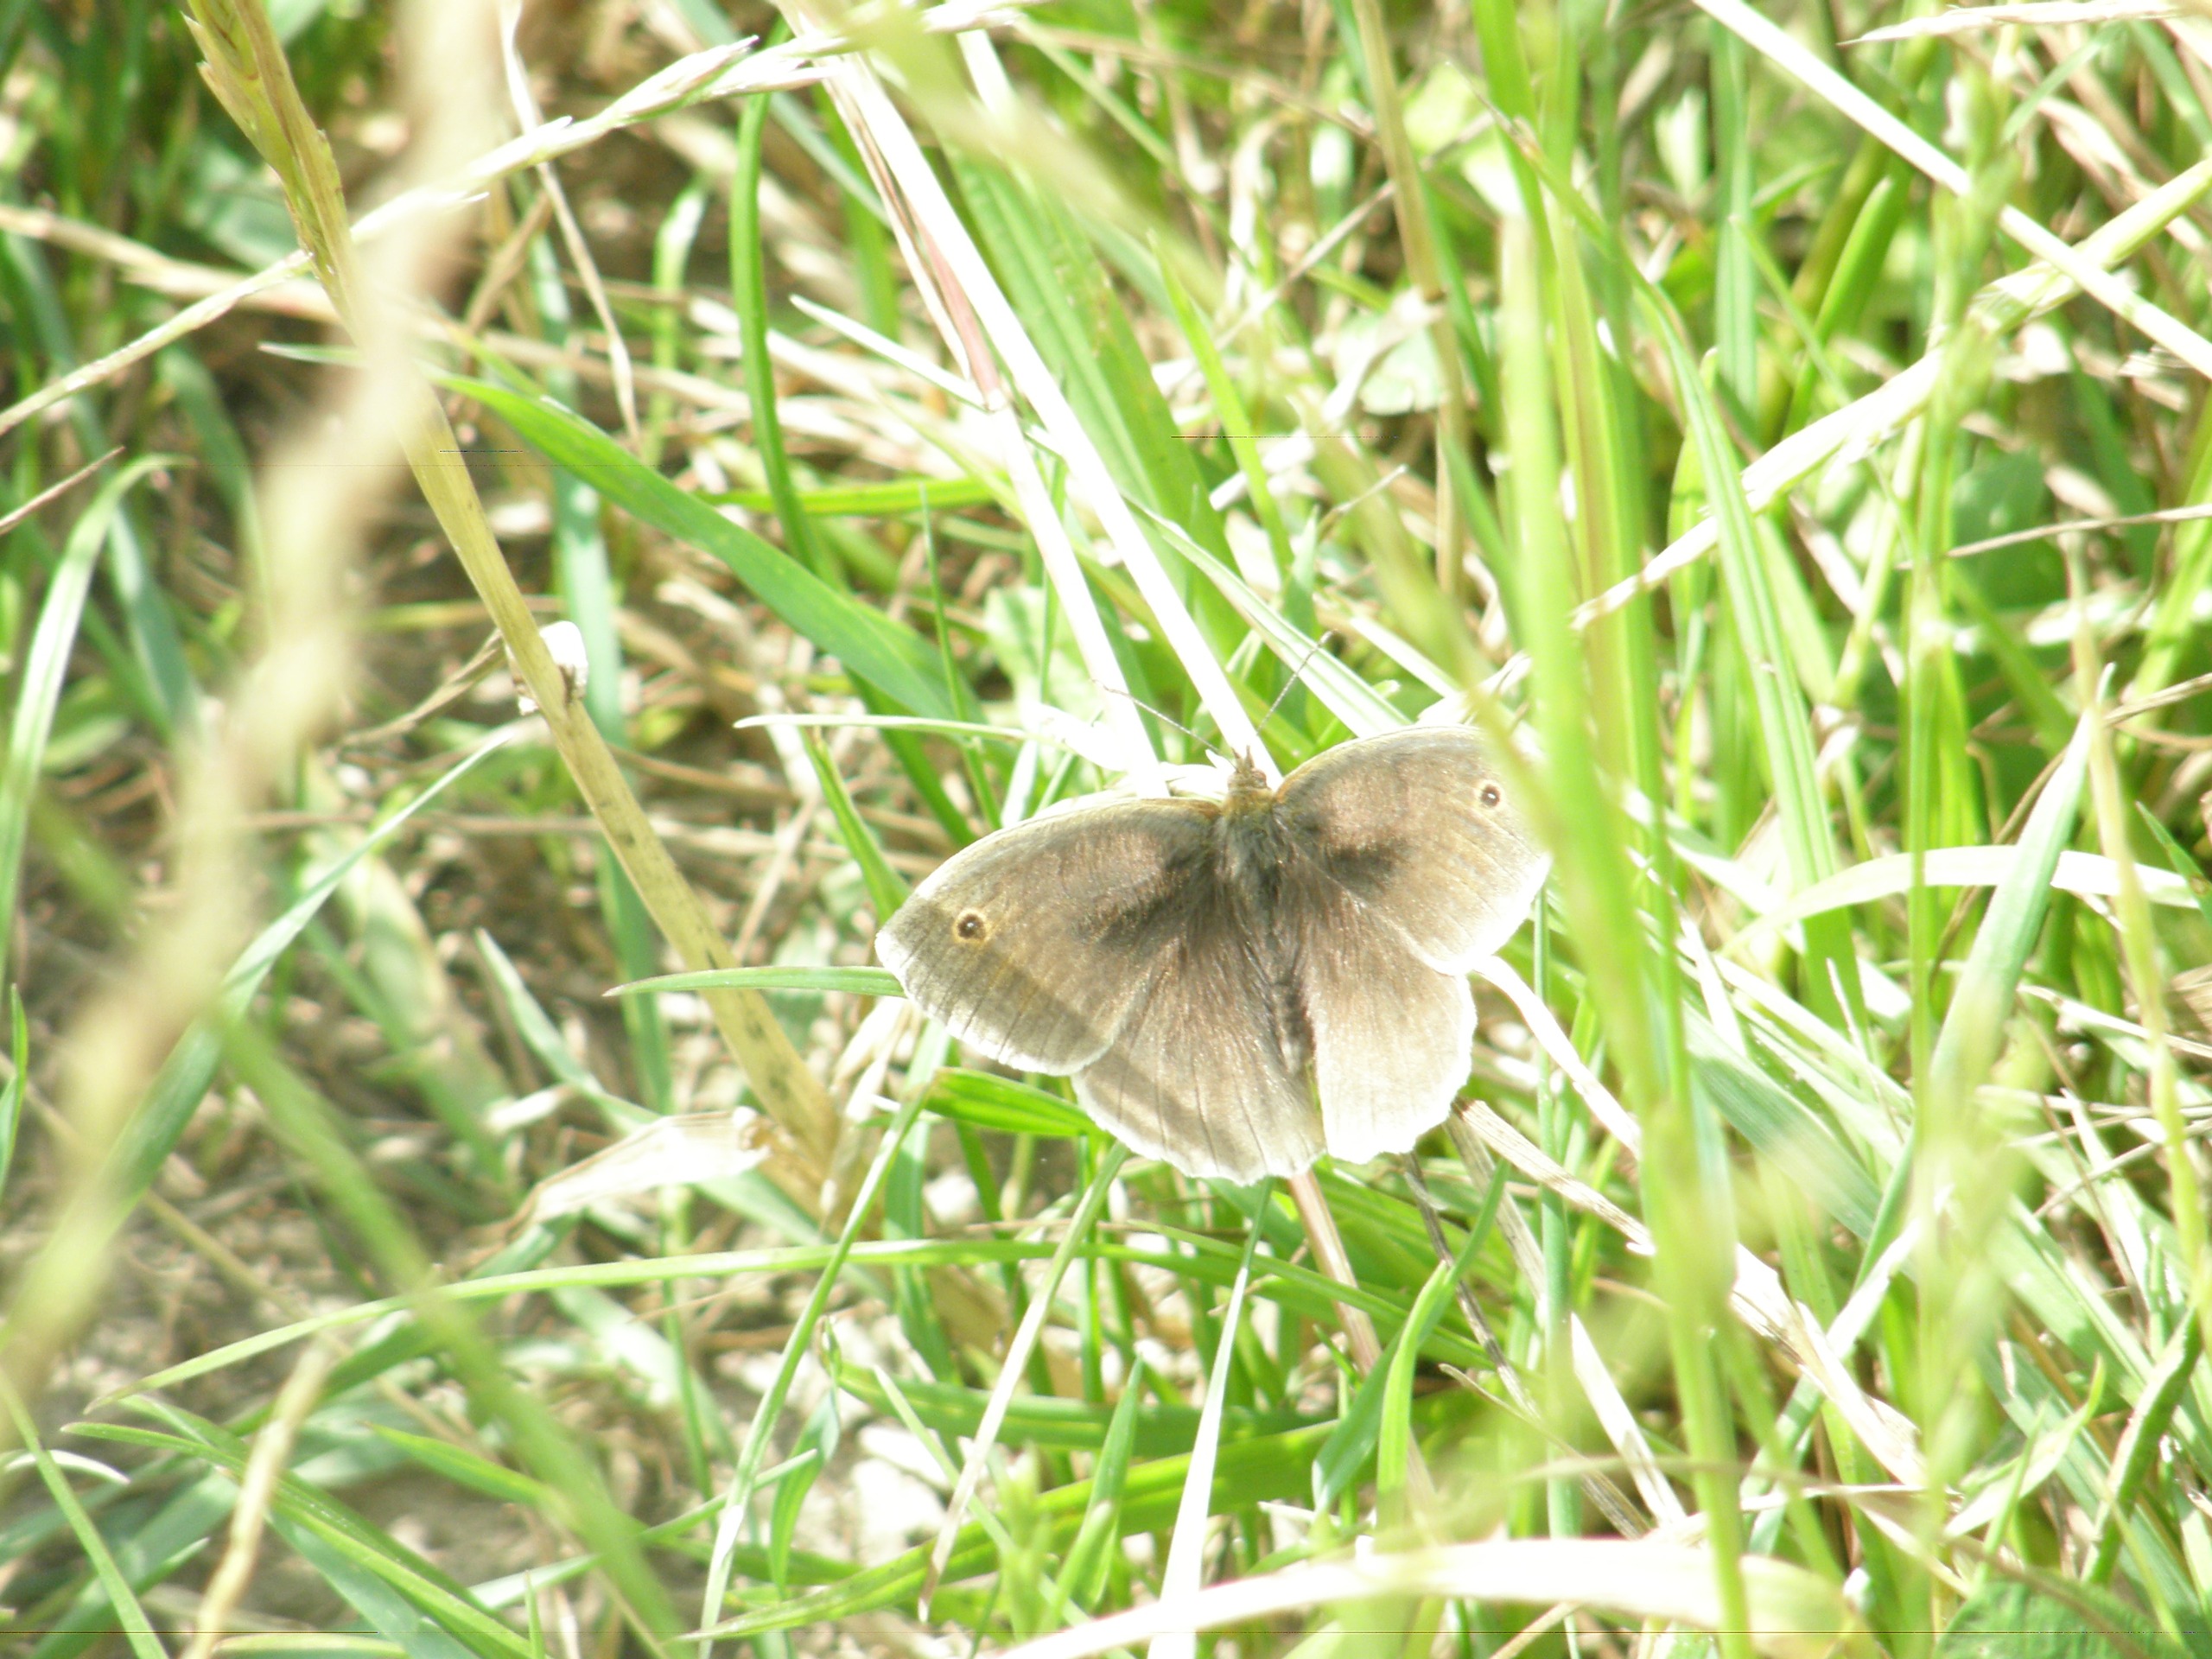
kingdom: Animalia
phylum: Arthropoda
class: Insecta
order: Lepidoptera
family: Nymphalidae
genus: Maniola
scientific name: Maniola jurtina
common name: Græsrandøje
